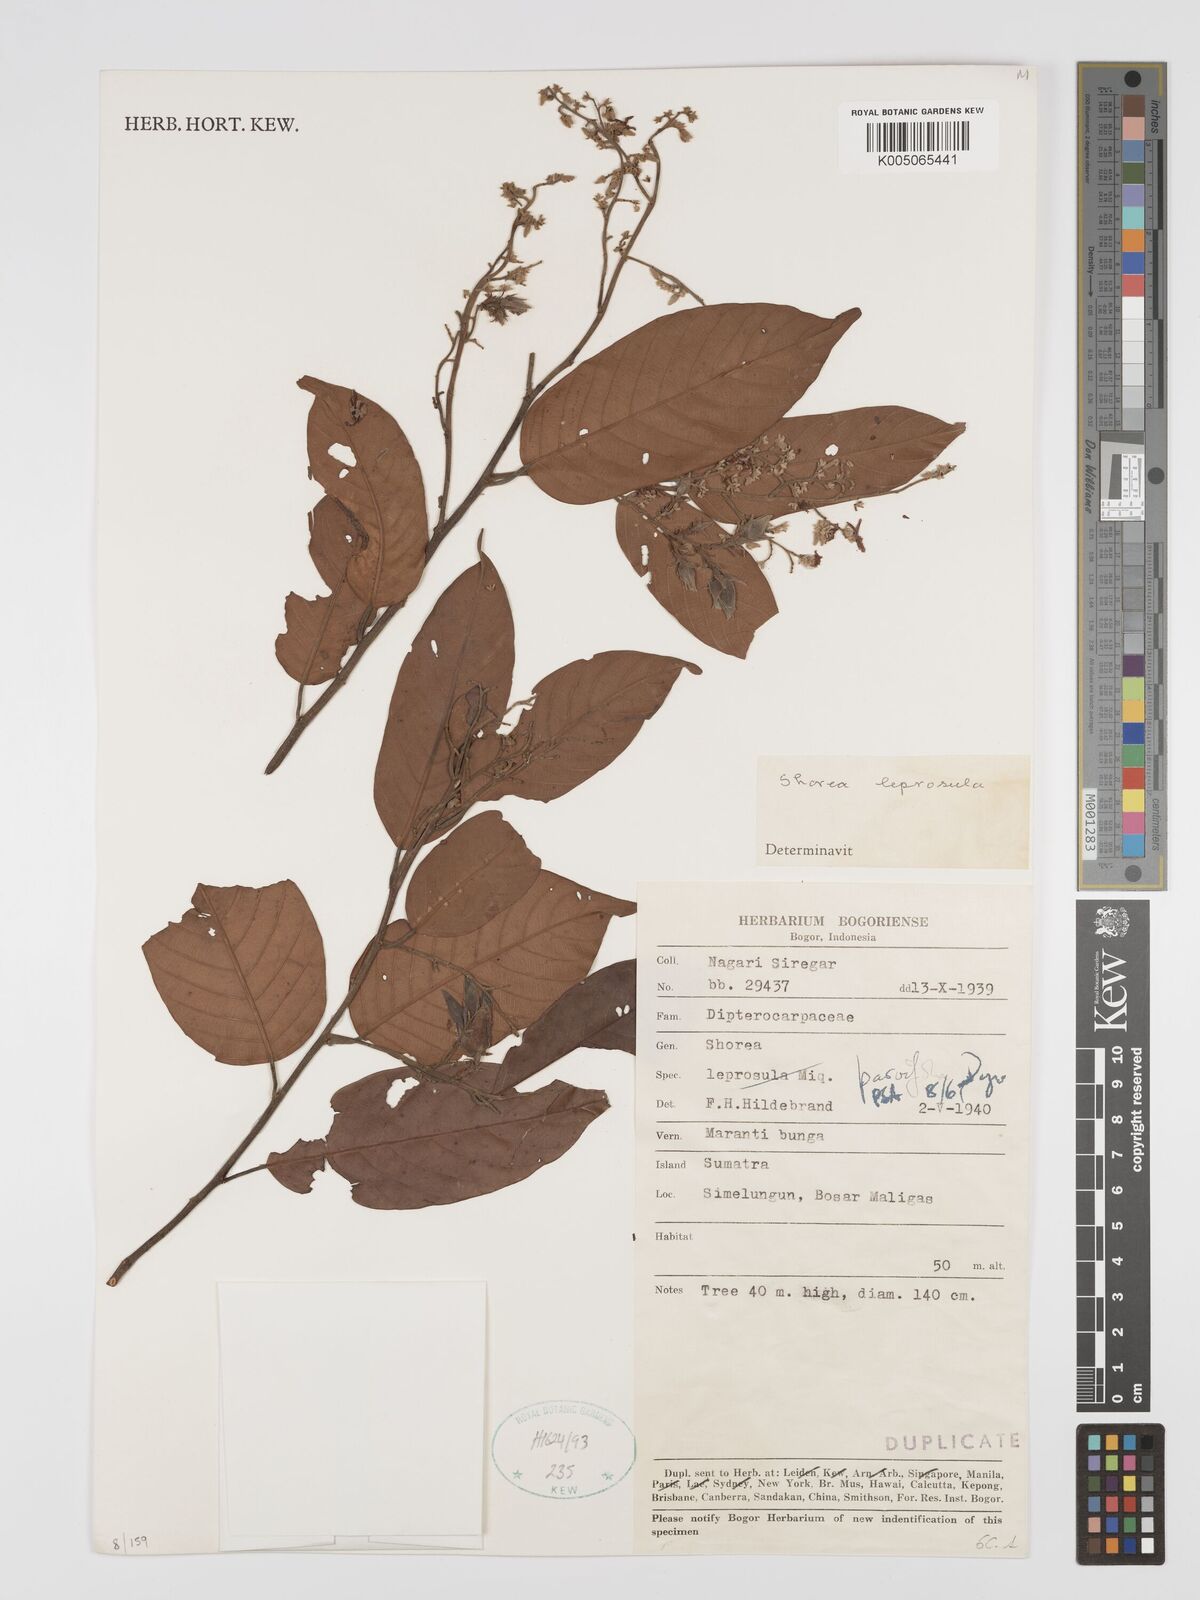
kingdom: Plantae
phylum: Tracheophyta
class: Magnoliopsida
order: Malvales
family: Dipterocarpaceae
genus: Shorea
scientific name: Shorea parvifolia
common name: Light red meranti
